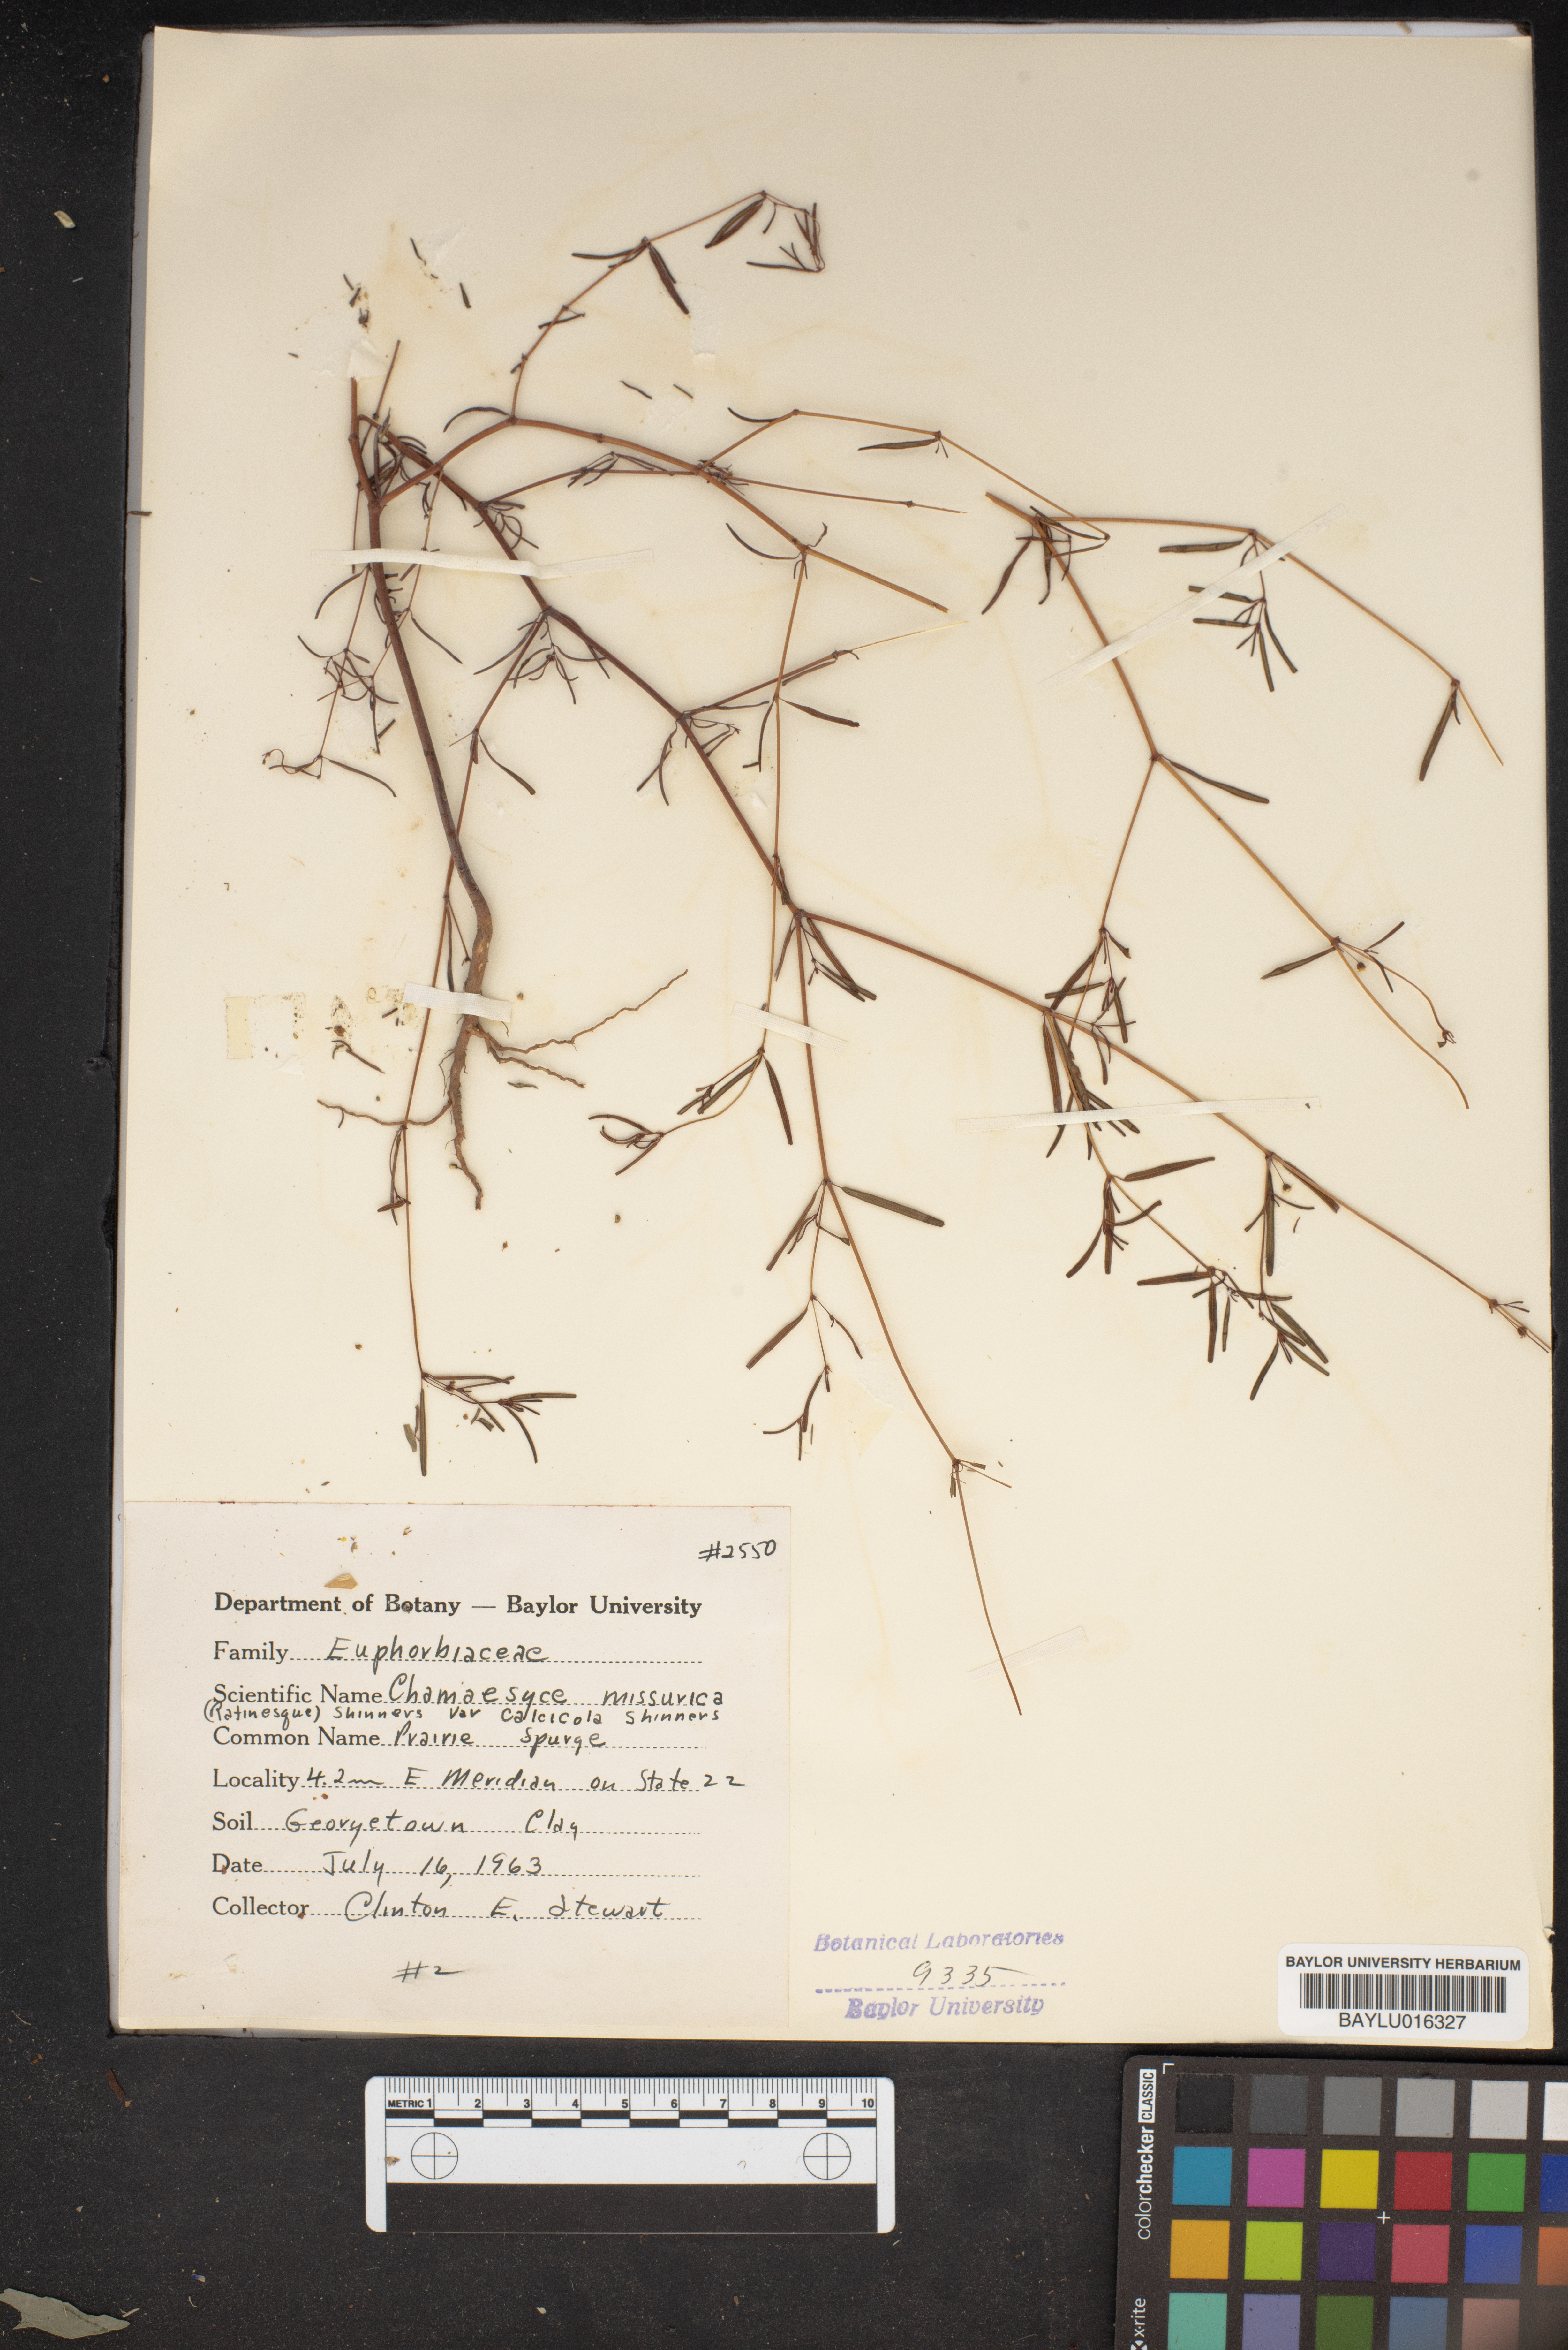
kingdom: Plantae
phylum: Tracheophyta
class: Magnoliopsida
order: Malpighiales
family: Euphorbiaceae
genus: Euphorbia
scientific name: Euphorbia missurica
